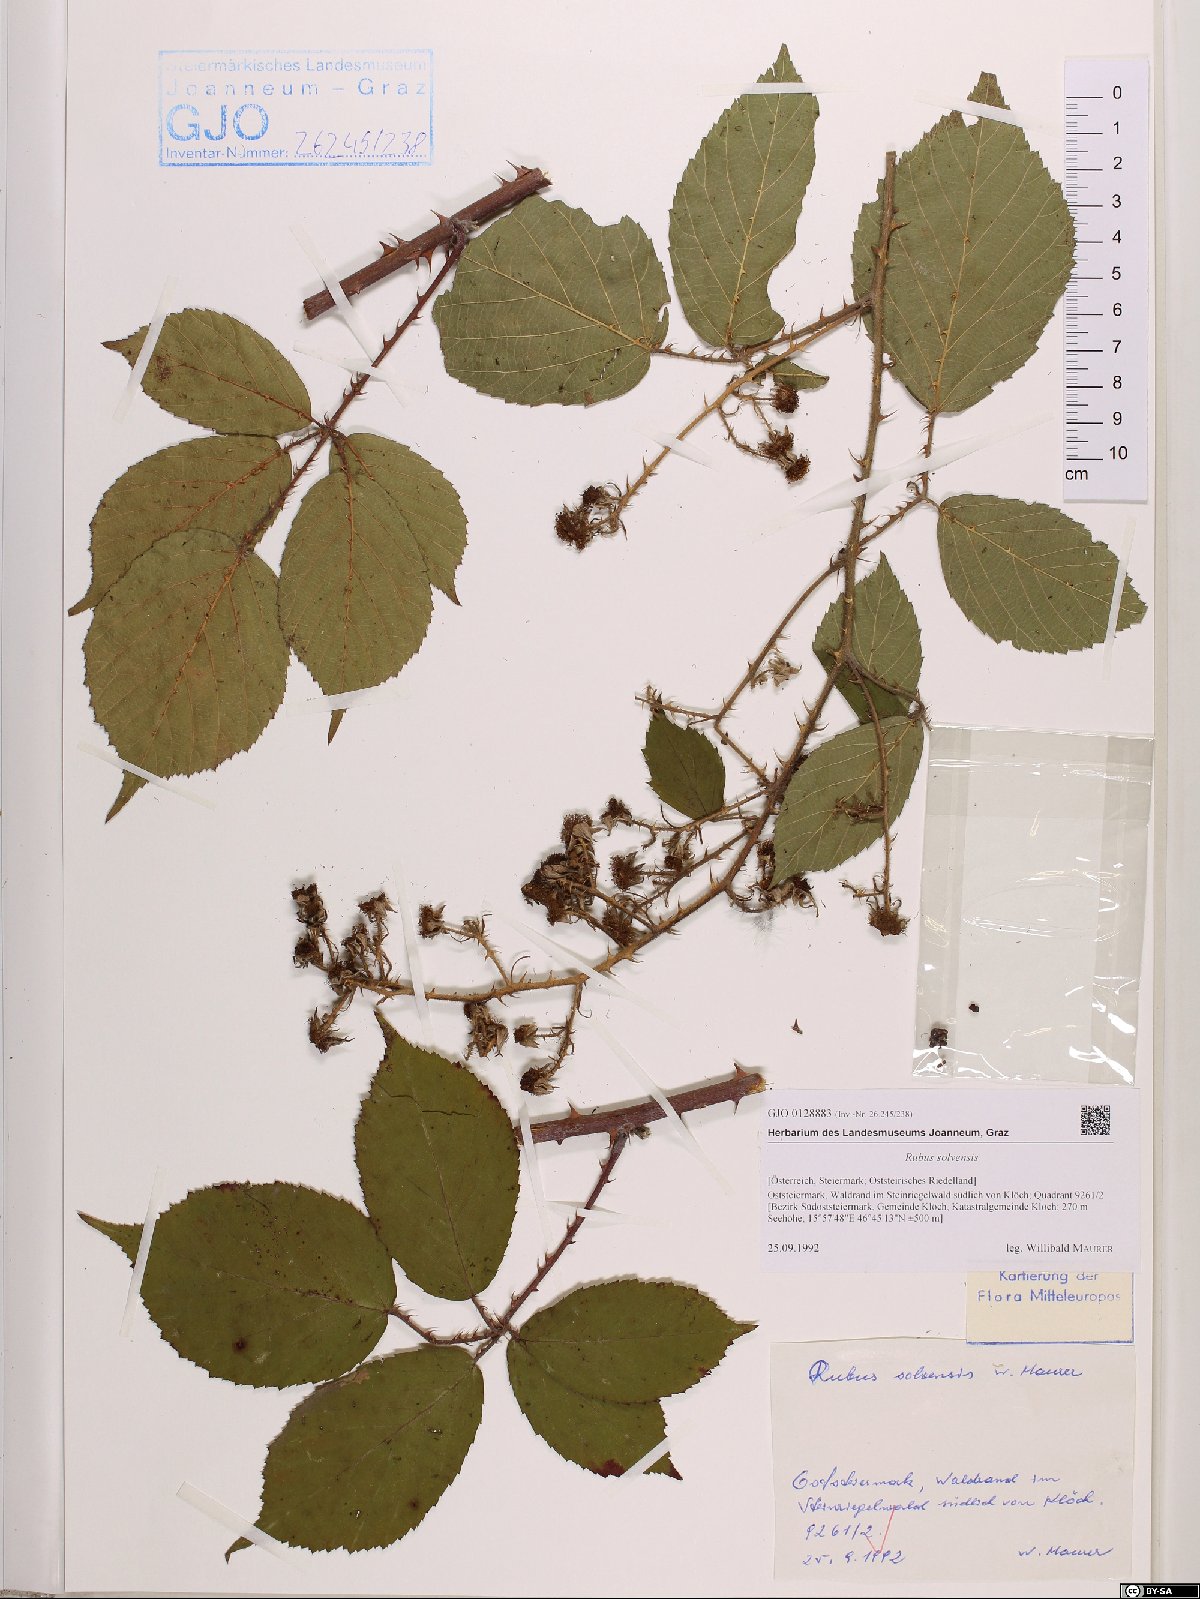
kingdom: Plantae
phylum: Tracheophyta
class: Magnoliopsida
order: Rosales
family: Rosaceae
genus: Rubus
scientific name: Rubus solvensis
